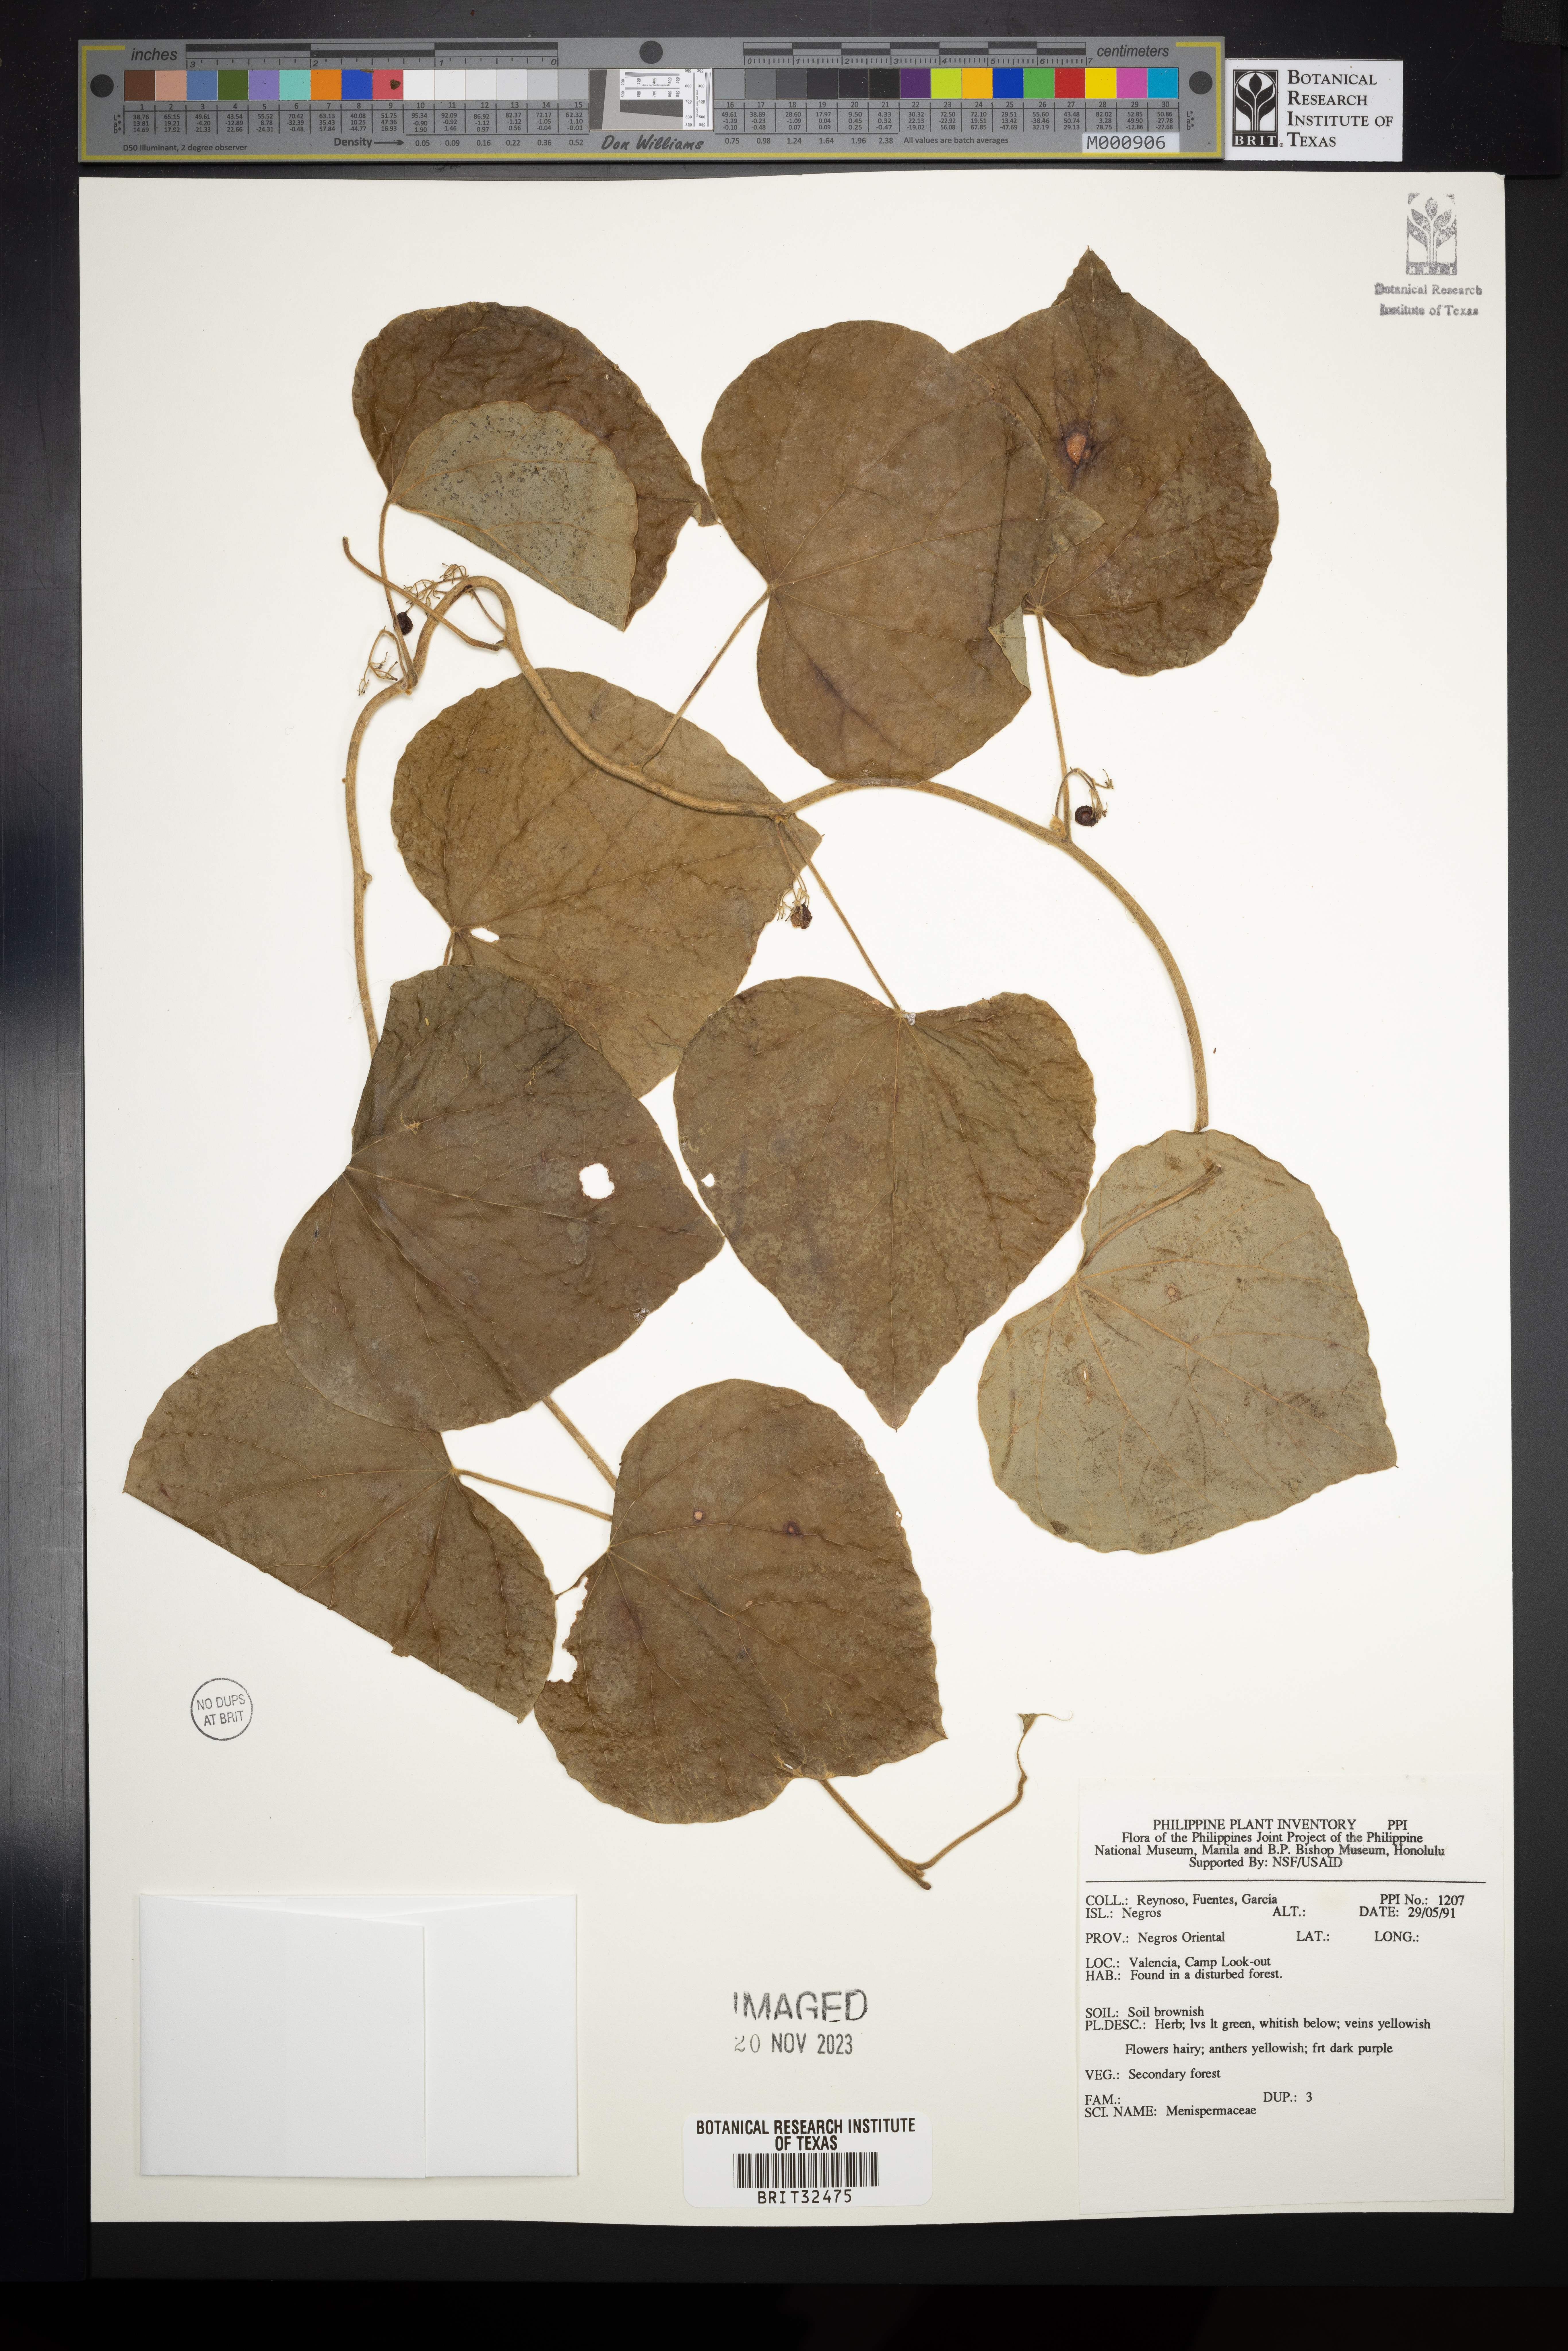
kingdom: Plantae
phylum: Tracheophyta
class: Magnoliopsida
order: Ranunculales
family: Menispermaceae
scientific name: Menispermaceae
